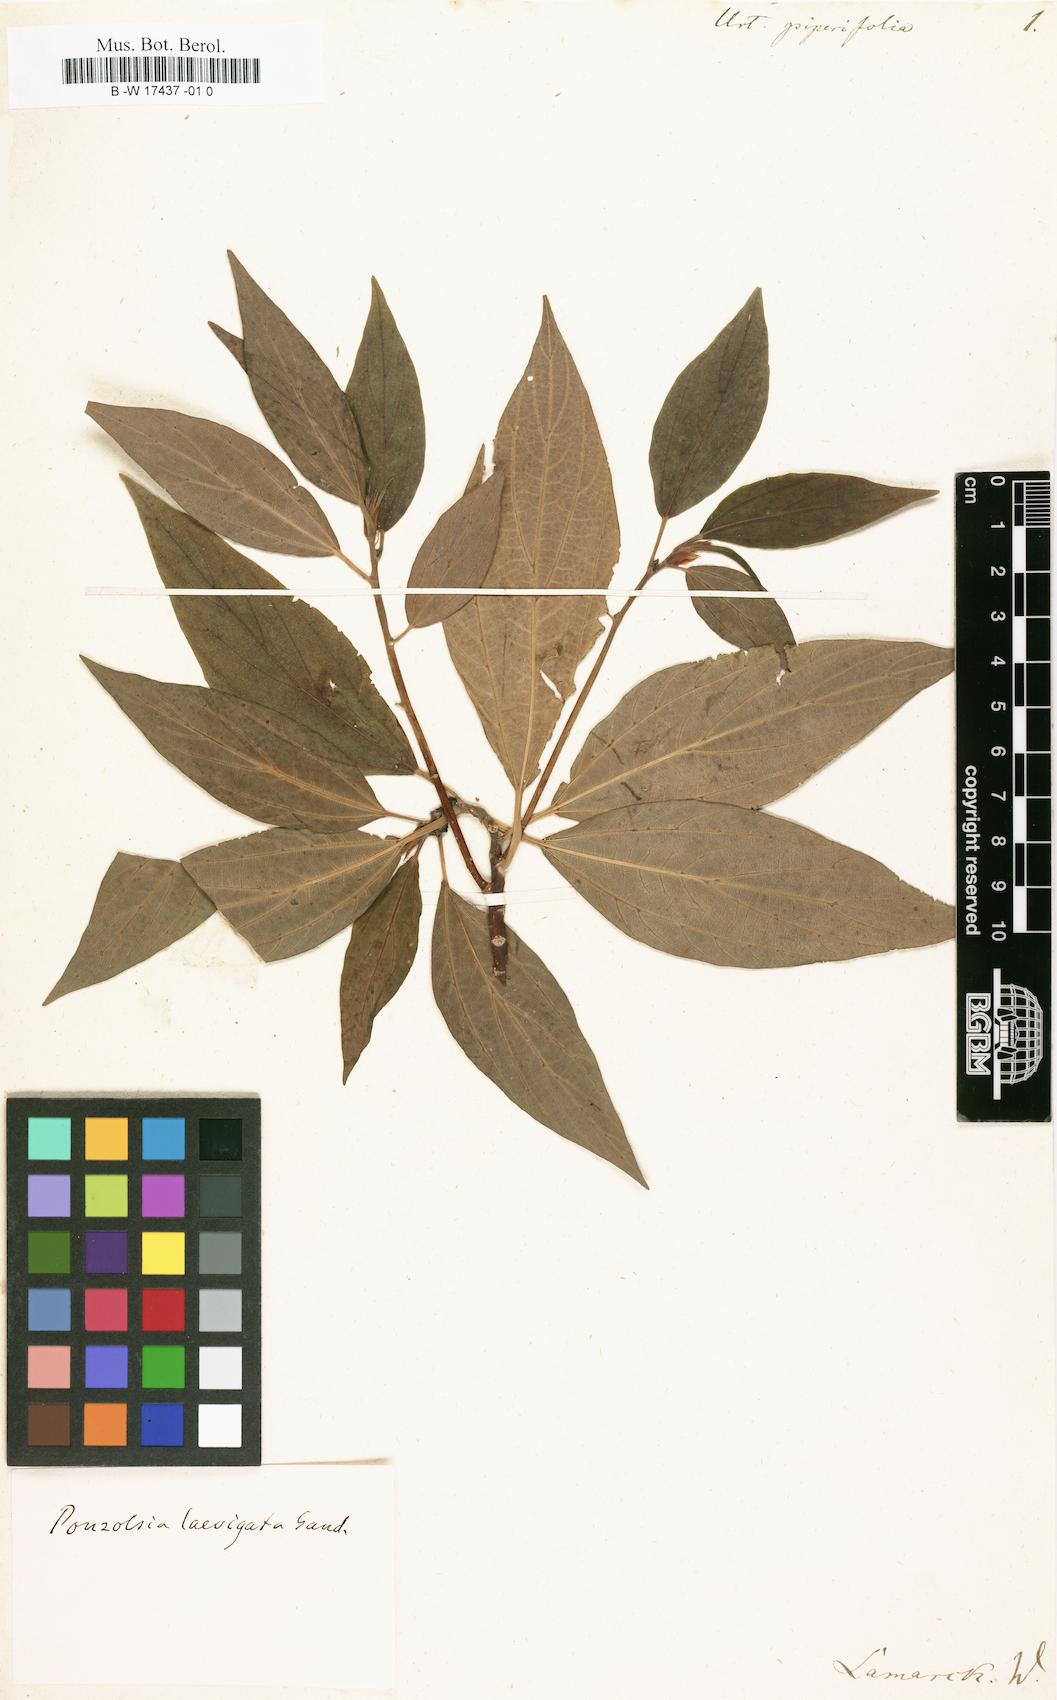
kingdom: Plantae
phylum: Tracheophyta
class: Magnoliopsida
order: Rosales
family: Urticaceae
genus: Urtica
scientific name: Urtica
